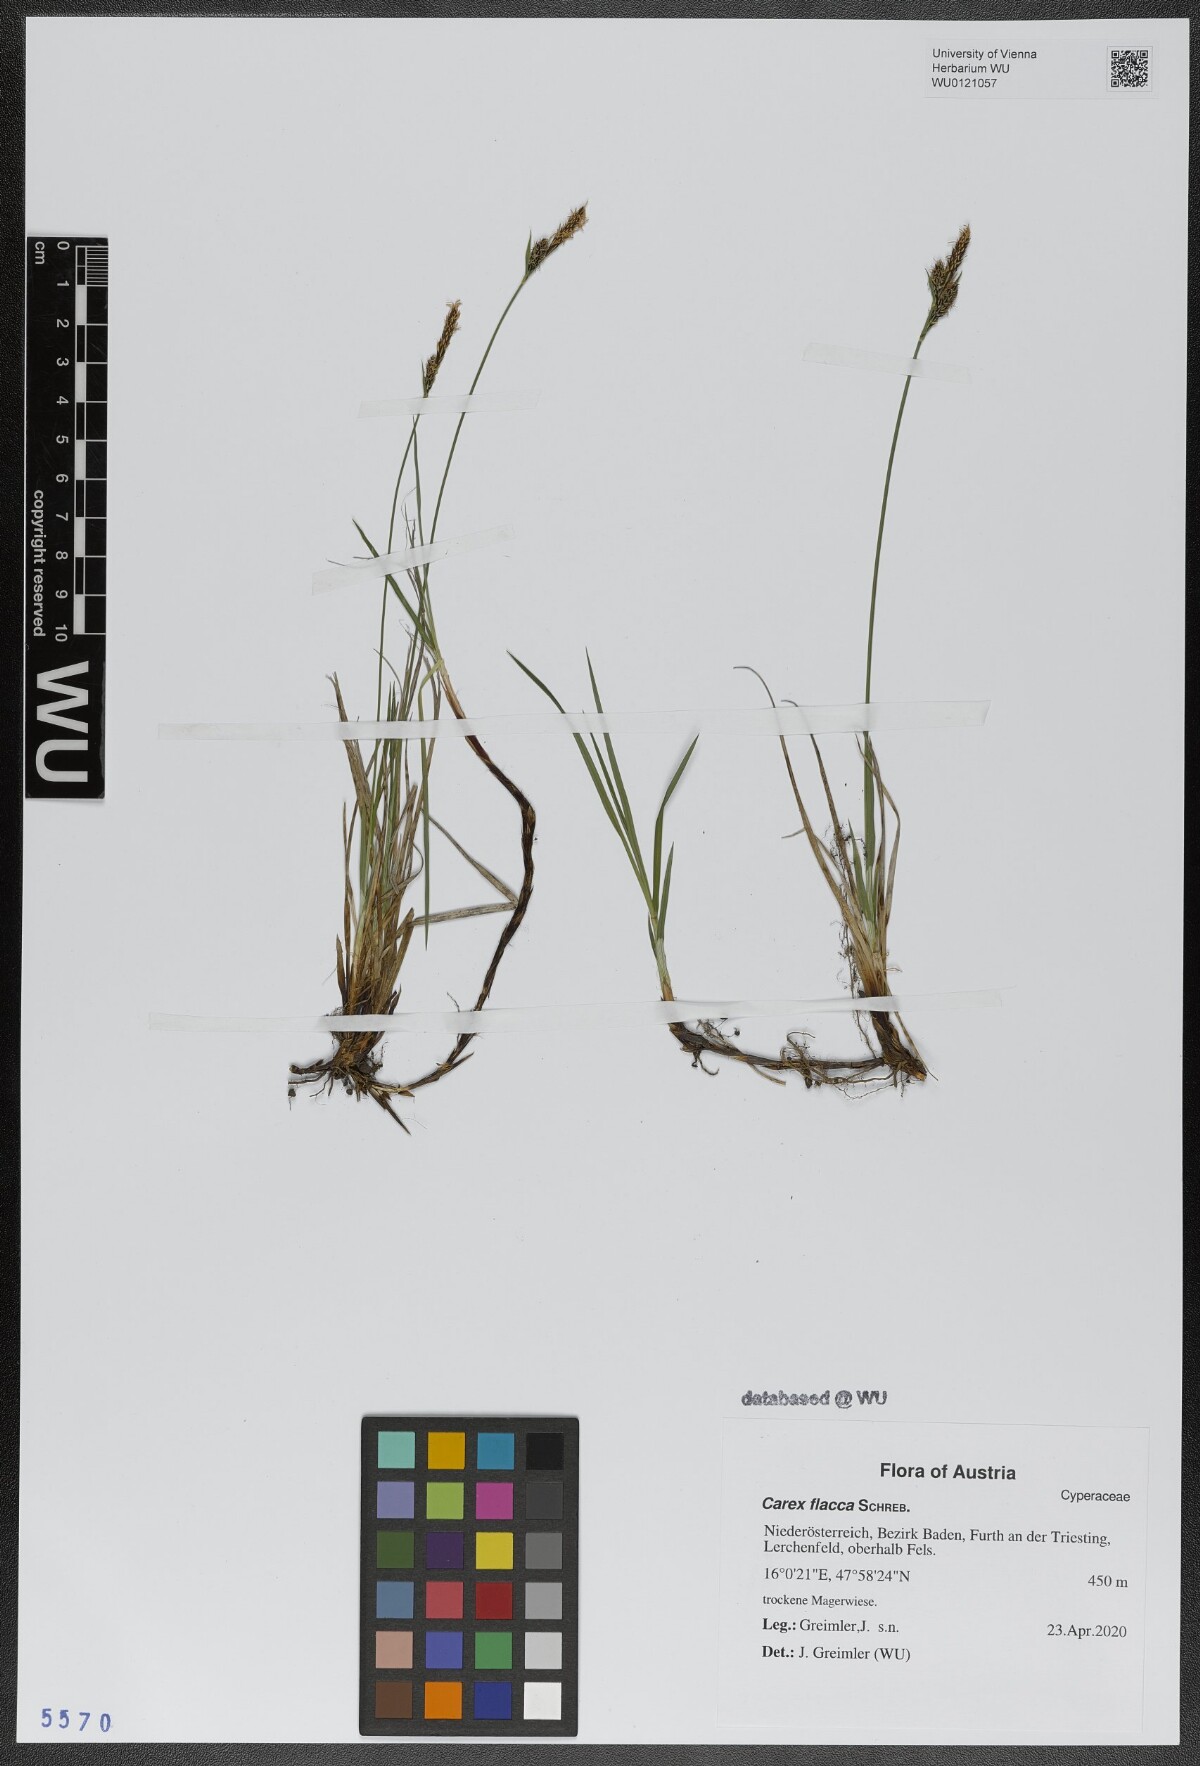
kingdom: Plantae
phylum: Tracheophyta
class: Liliopsida
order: Poales
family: Cyperaceae
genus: Carex
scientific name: Carex flacca
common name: Glaucous sedge
